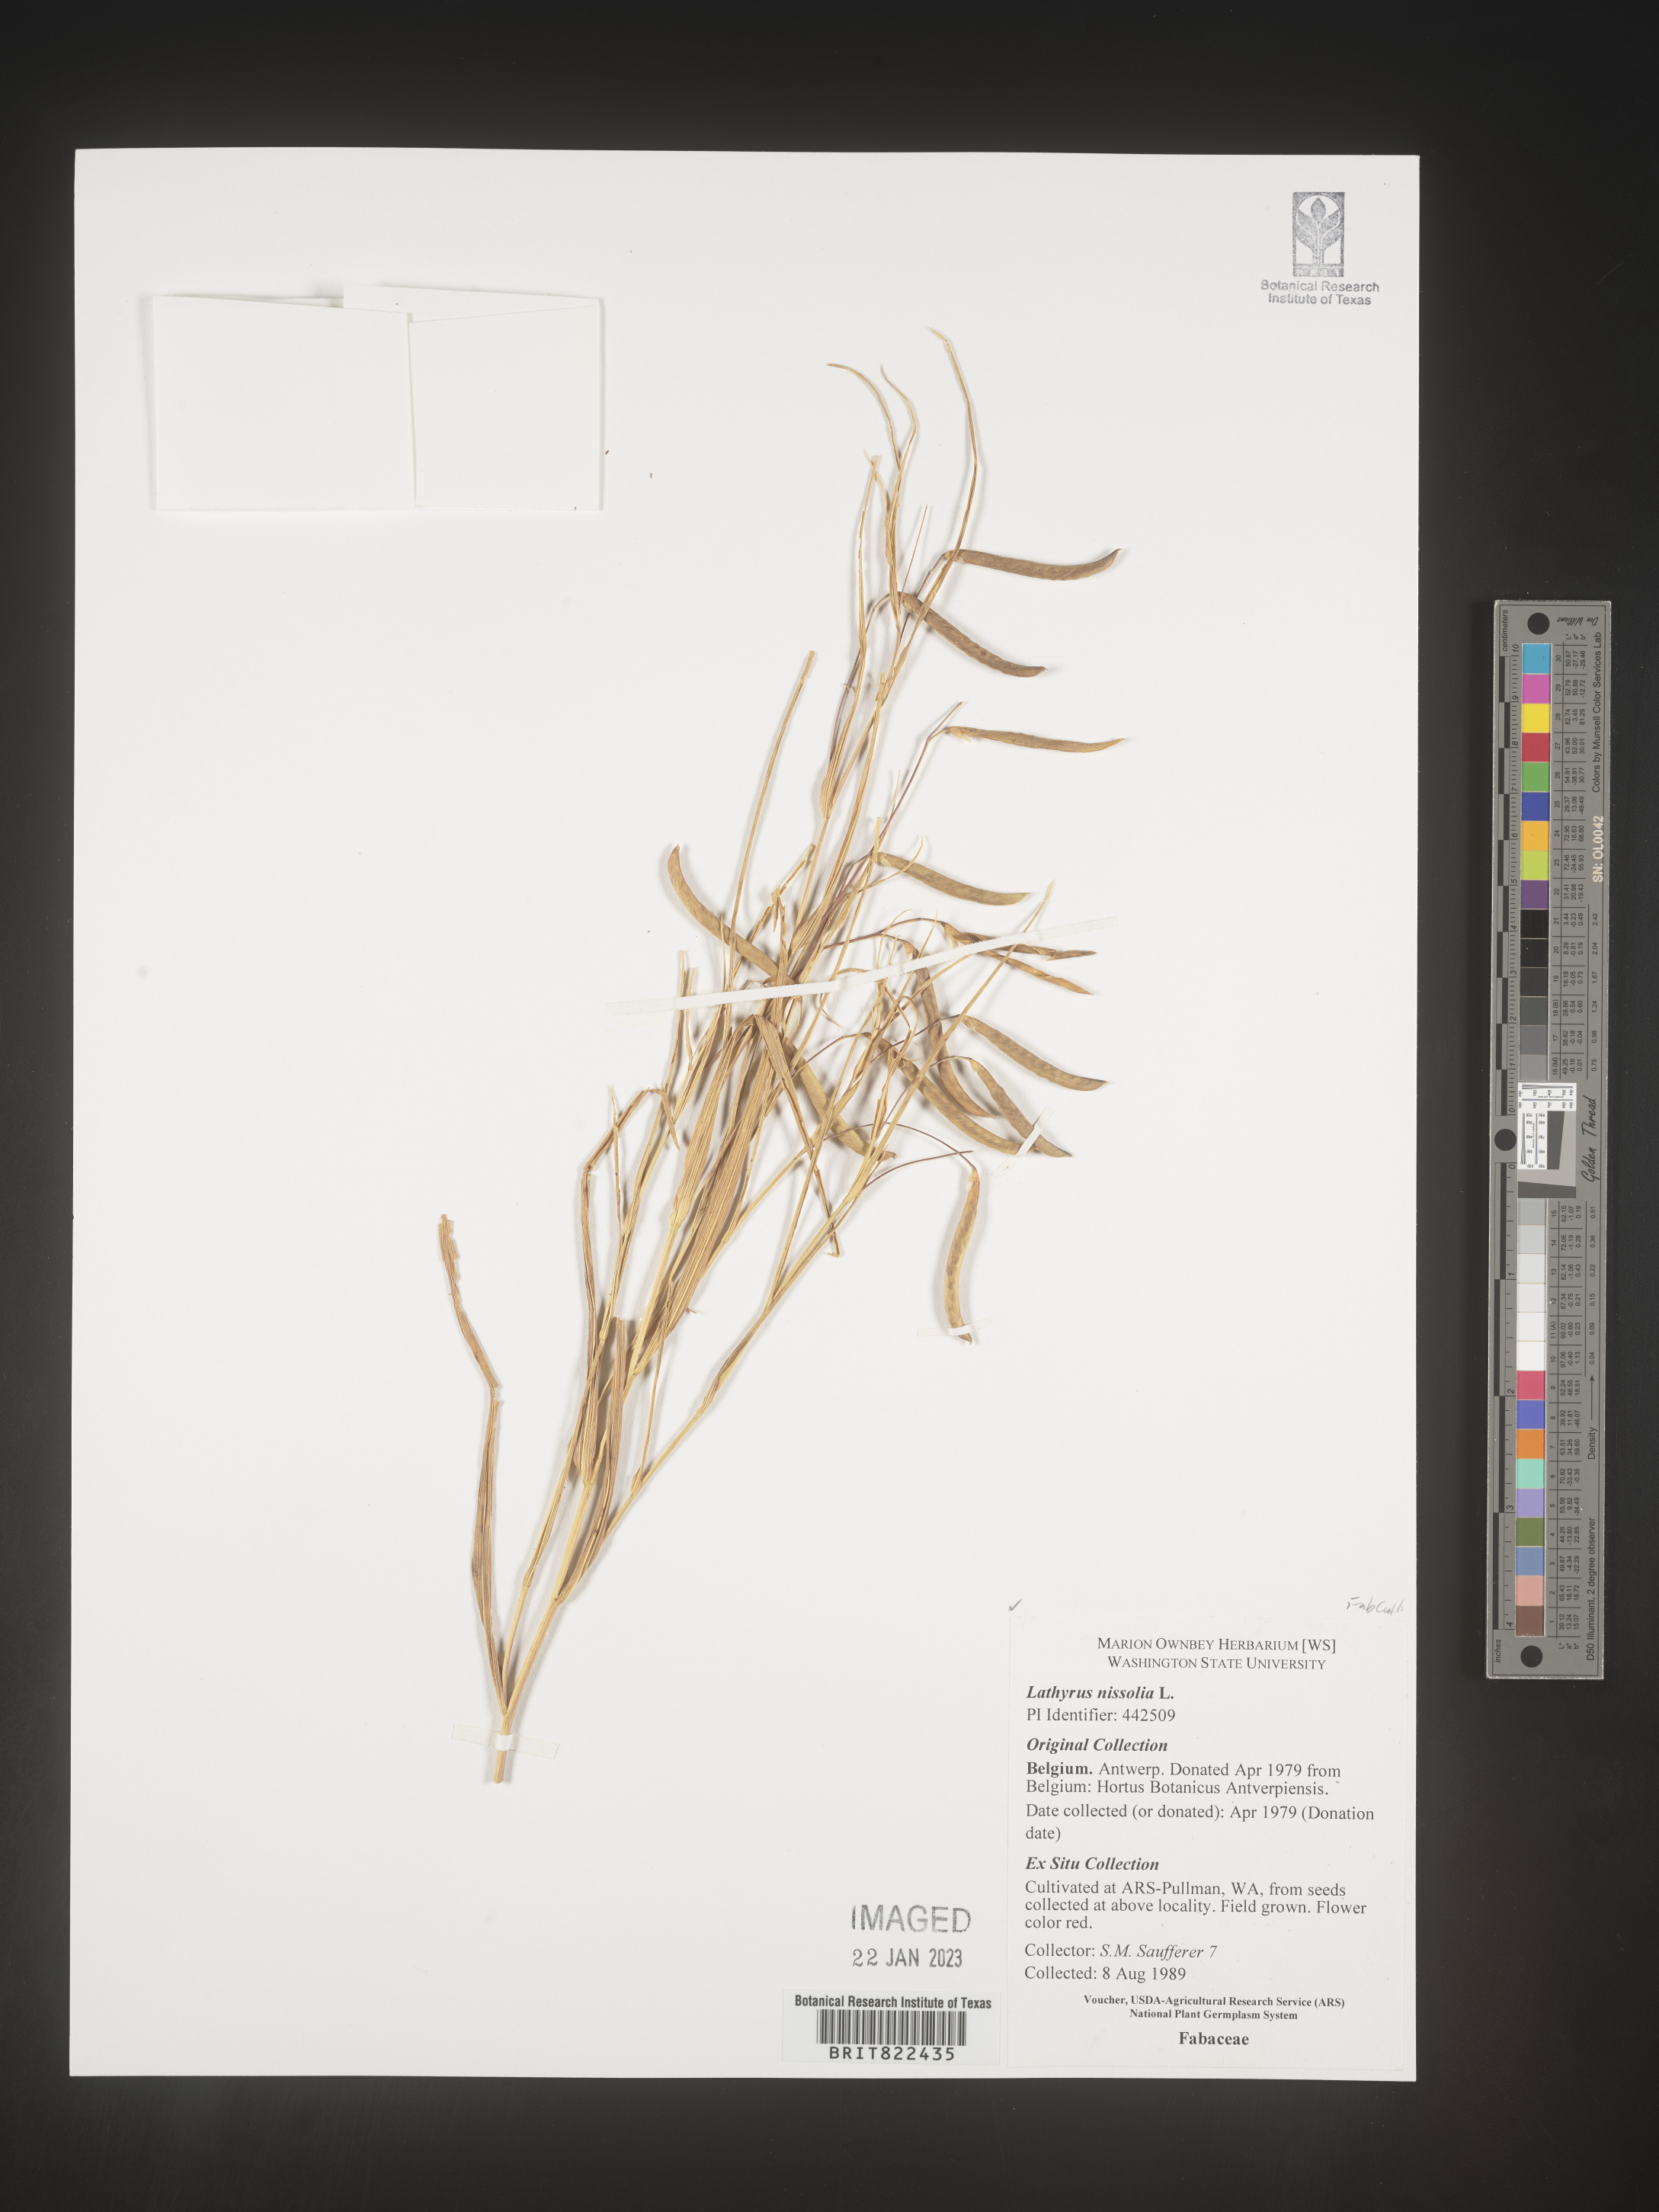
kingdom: Plantae
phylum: Tracheophyta
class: Magnoliopsida
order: Fabales
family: Fabaceae
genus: Lathyrus
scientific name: Lathyrus
